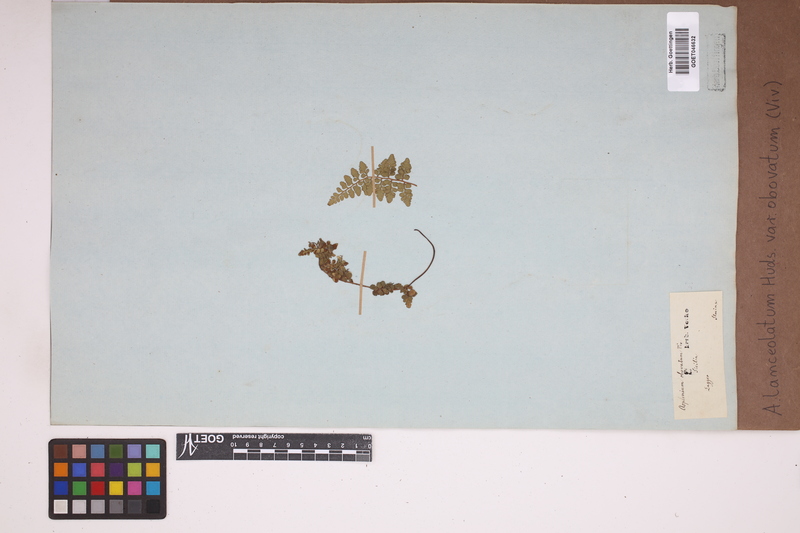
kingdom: Plantae
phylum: Tracheophyta
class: Polypodiopsida
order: Polypodiales
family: Aspleniaceae
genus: Asplenium
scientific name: Asplenium obovatum
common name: Lanceolate spleenwort
